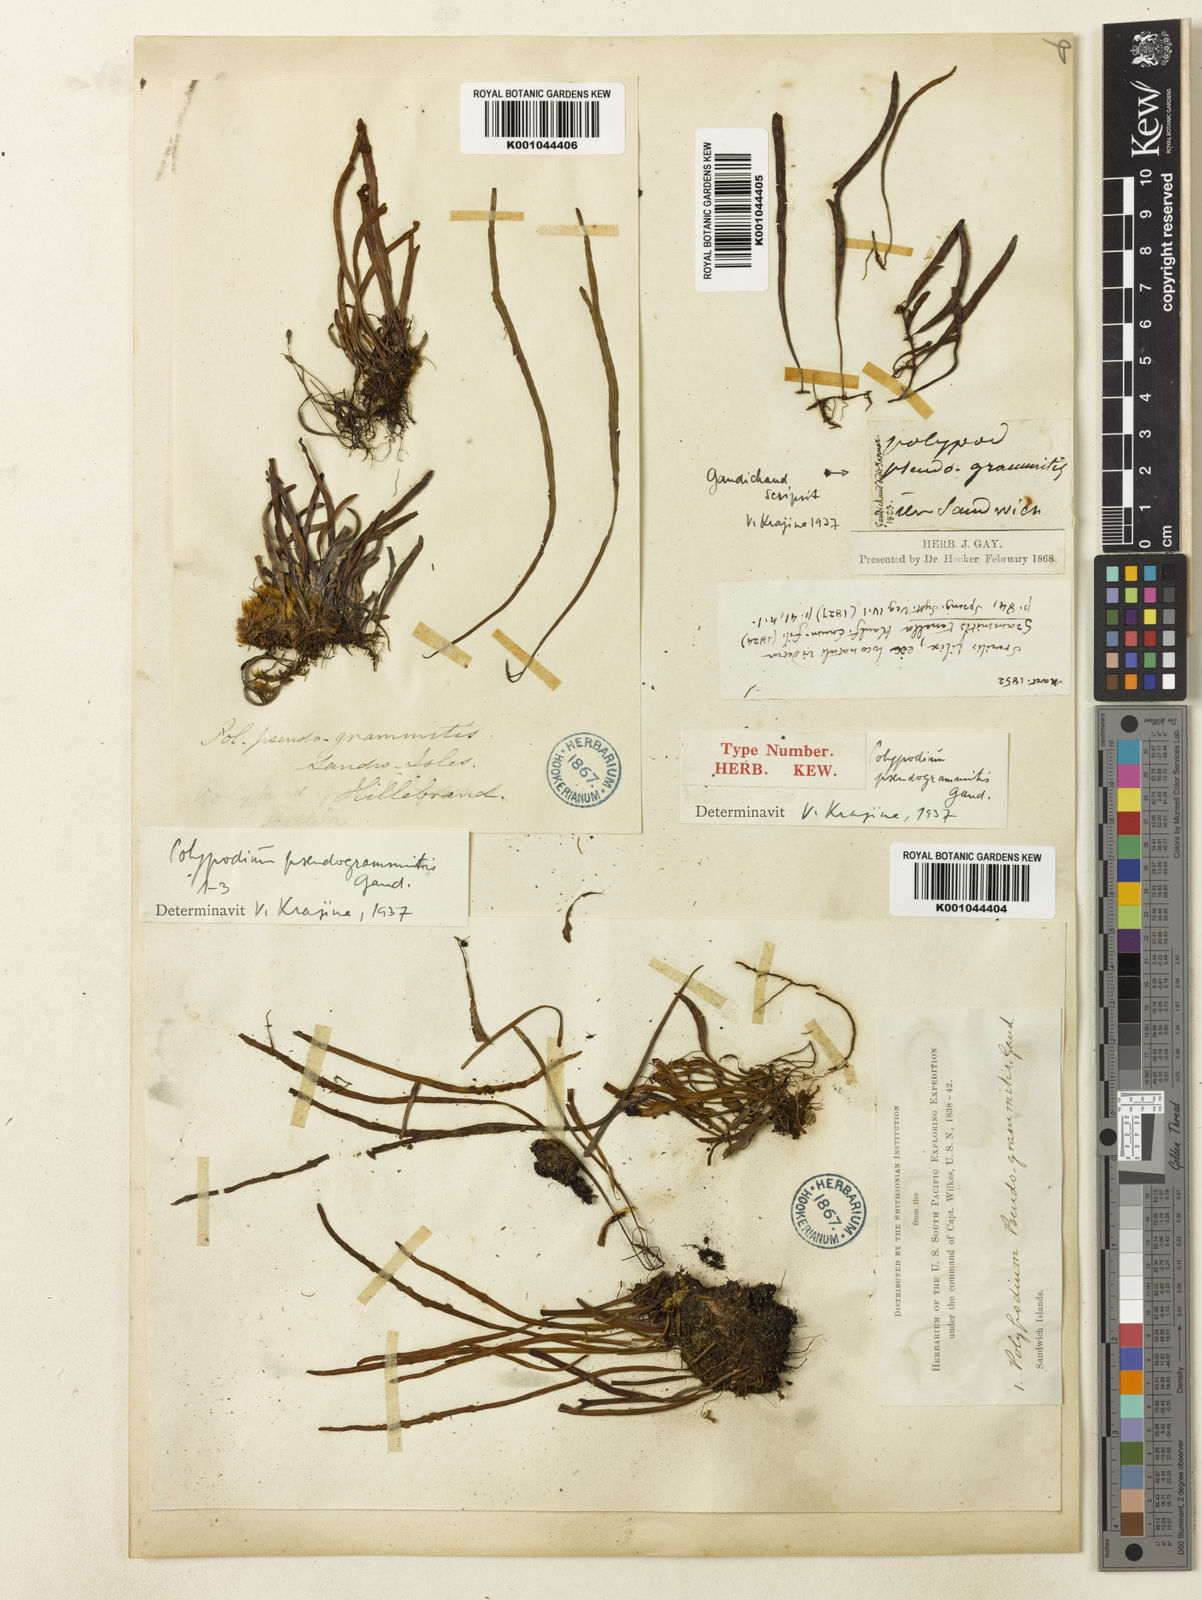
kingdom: Plantae
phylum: Tracheophyta
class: Polypodiopsida
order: Polypodiales
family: Polypodiaceae
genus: Adenophorus
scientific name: Adenophorus tenellus
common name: Kolokolo
